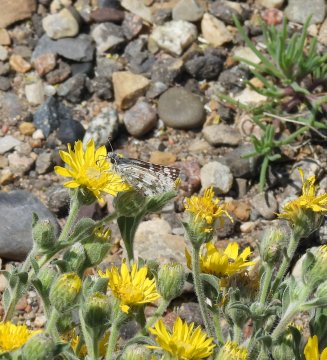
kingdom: Animalia
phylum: Arthropoda
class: Insecta
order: Lepidoptera
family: Hesperiidae
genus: Pyrgus
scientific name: Pyrgus communis
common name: Common Checkered-Skipper
